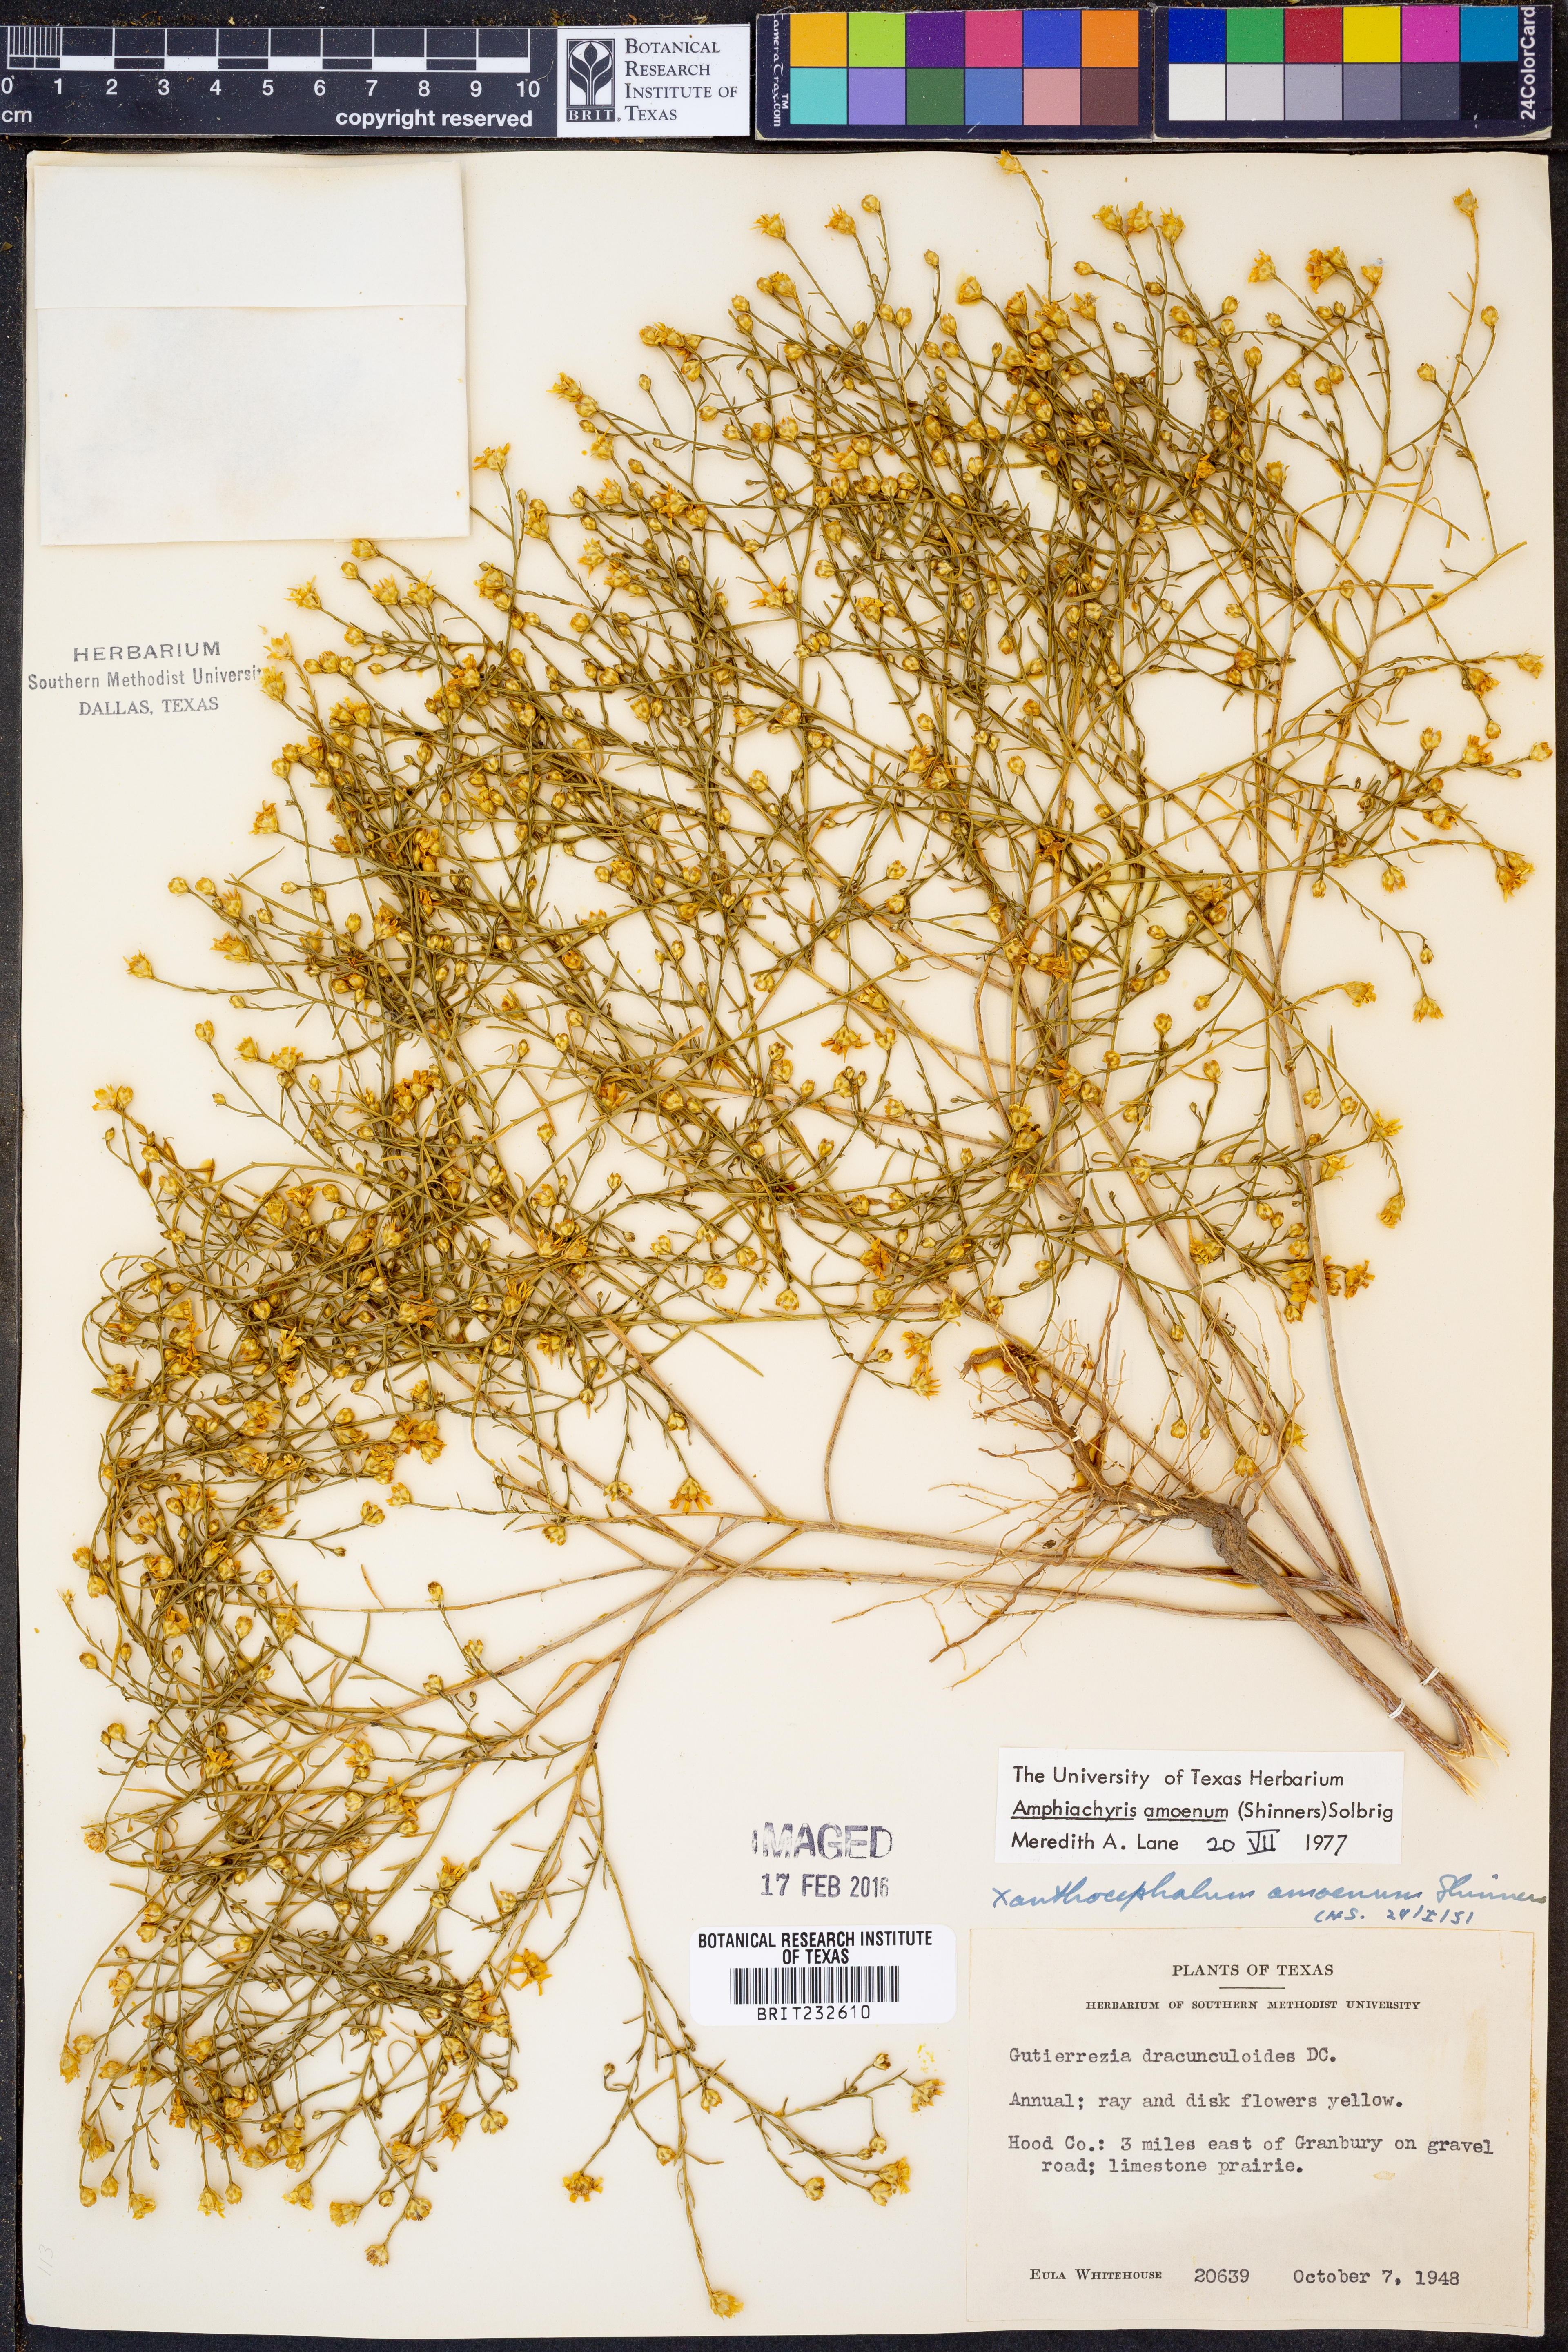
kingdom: Plantae
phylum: Tracheophyta
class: Magnoliopsida
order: Asterales
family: Asteraceae
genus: Amphiachyris
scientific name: Amphiachyris amoenum
